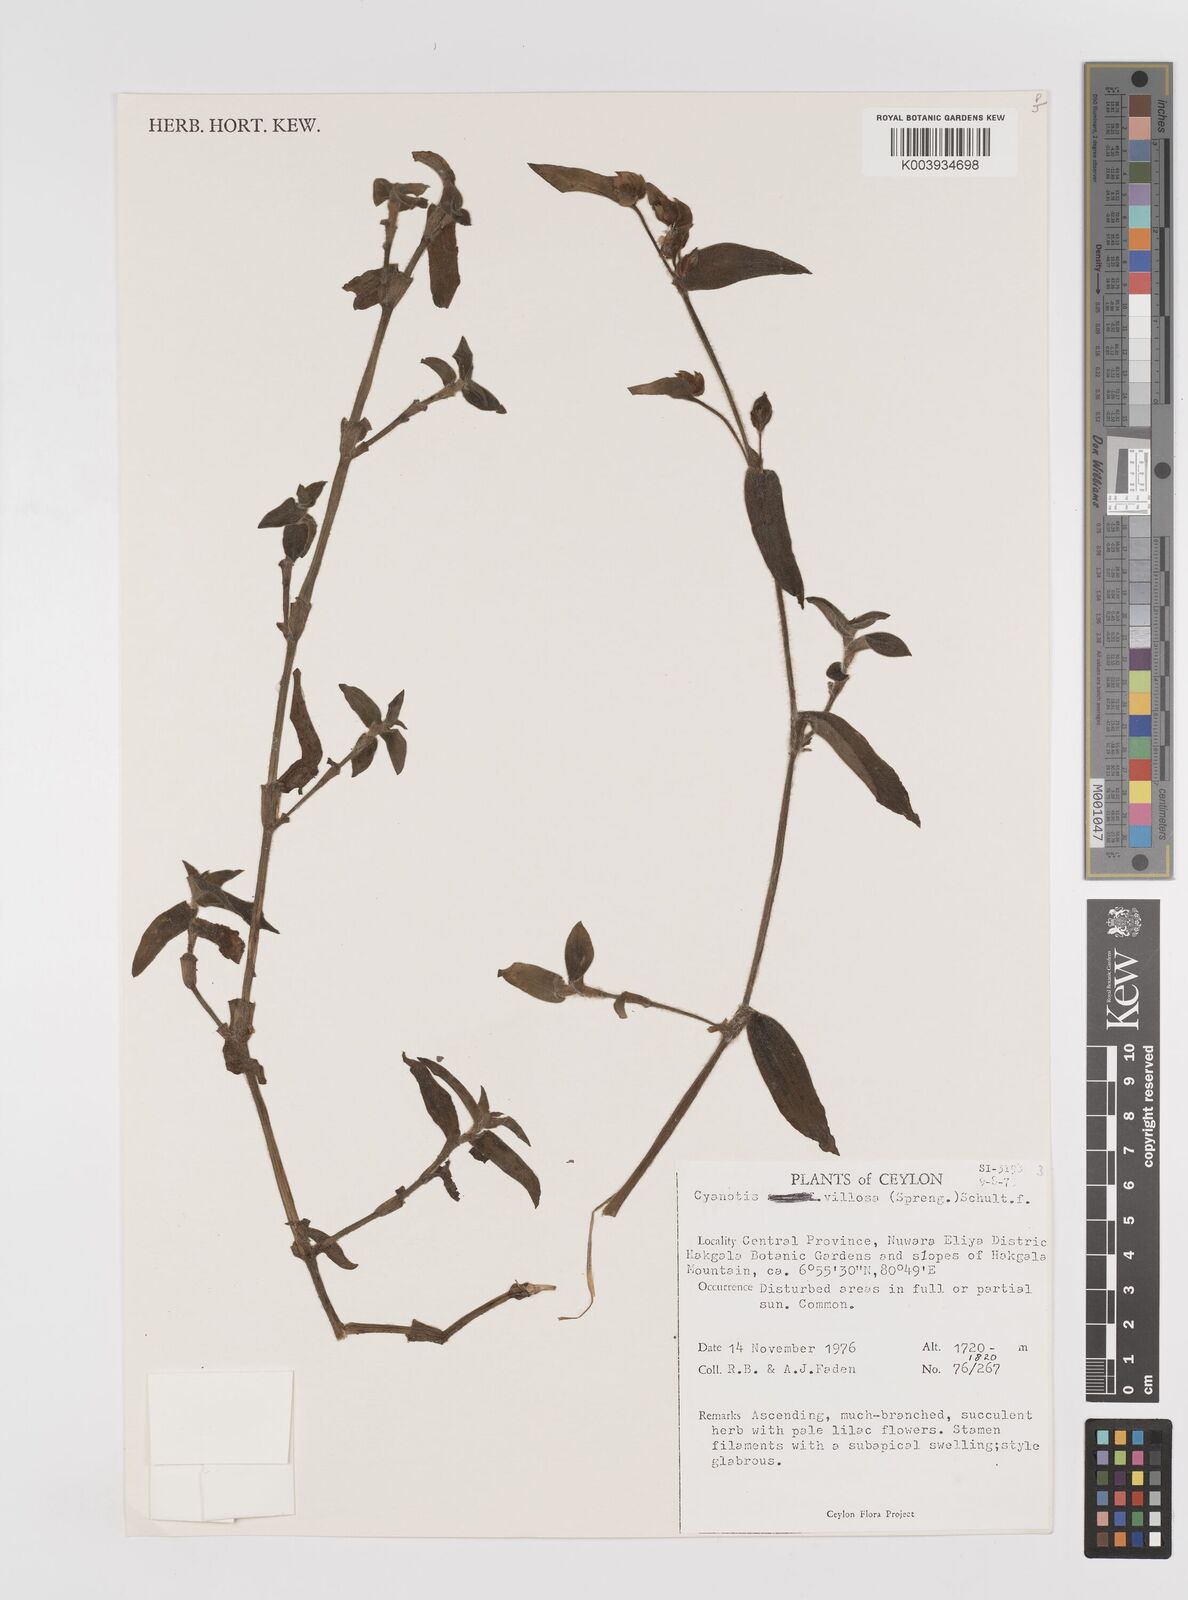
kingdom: Plantae
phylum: Tracheophyta
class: Liliopsida
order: Commelinales
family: Commelinaceae
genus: Cyanotis
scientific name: Cyanotis villosa
